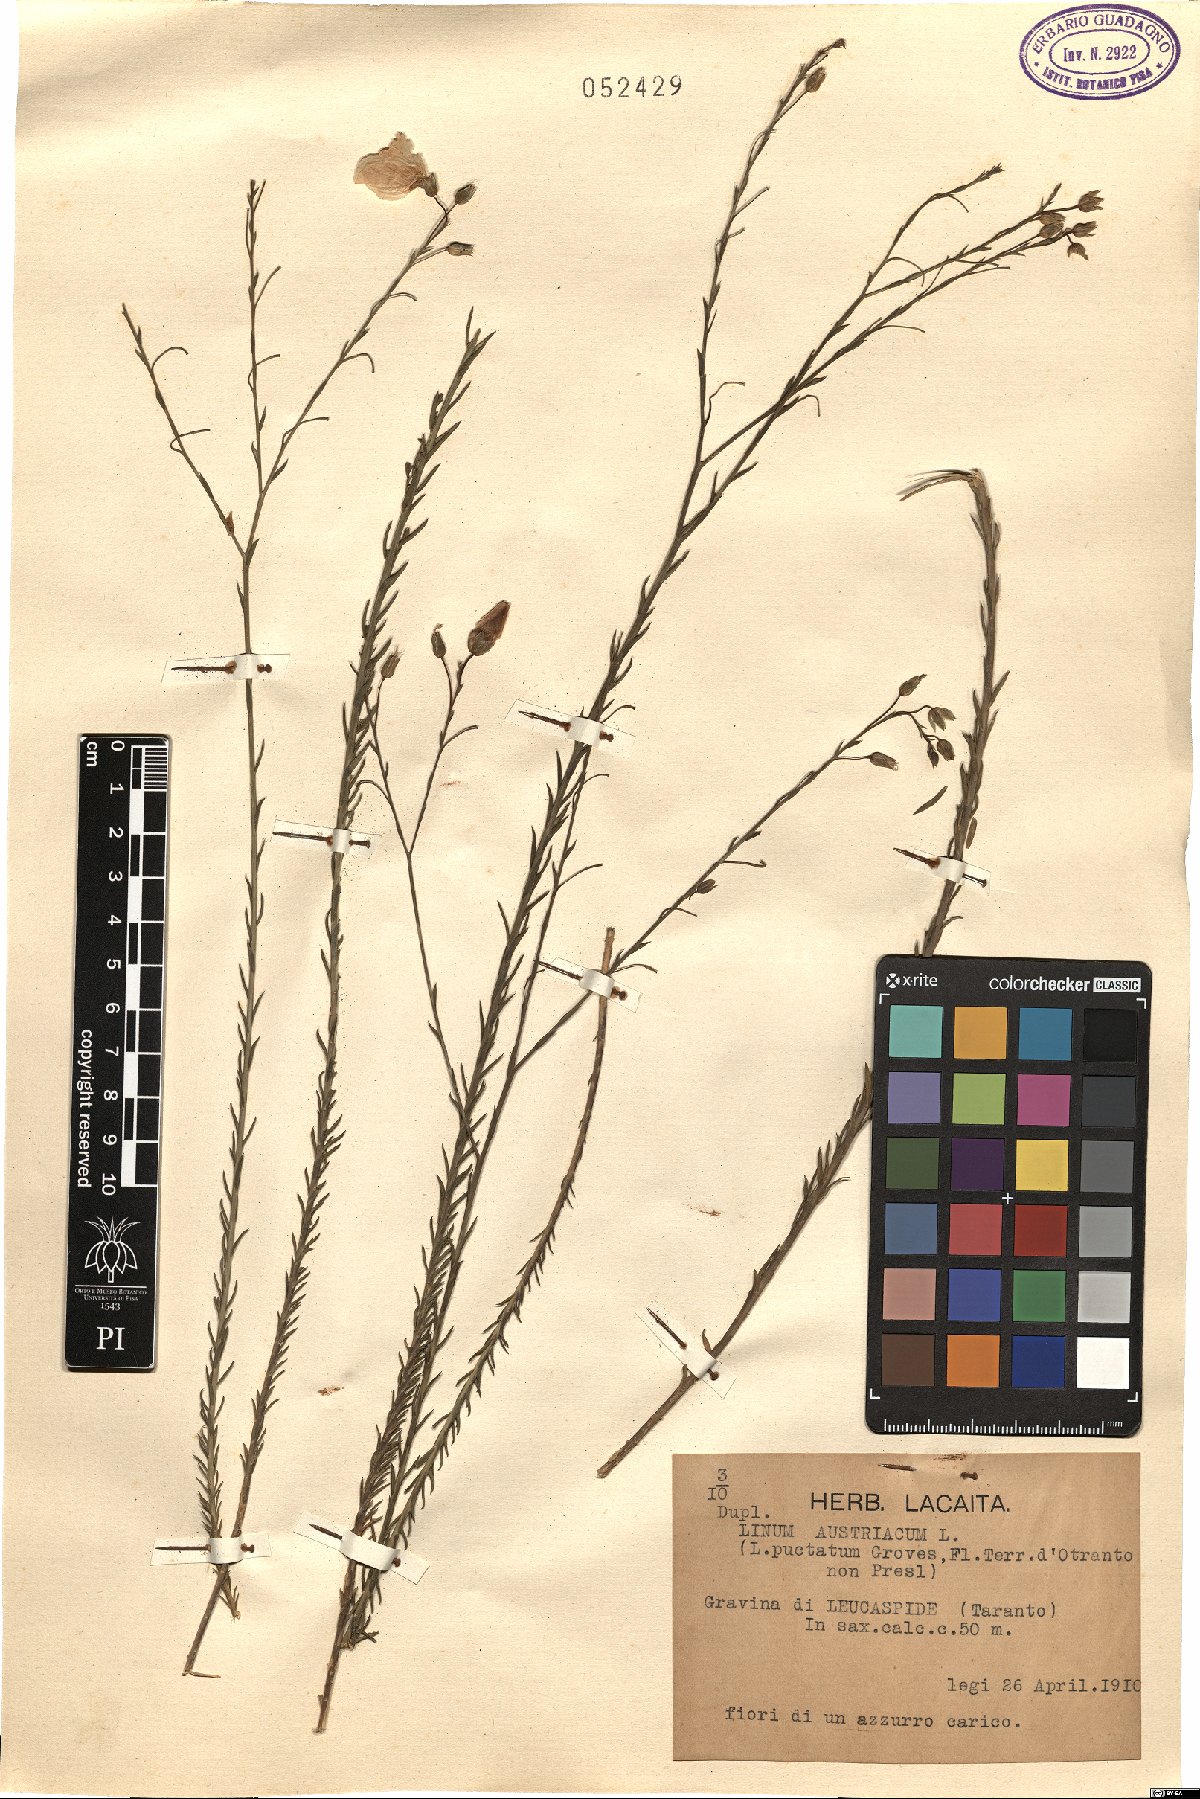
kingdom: Plantae
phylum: Tracheophyta
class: Magnoliopsida
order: Malpighiales
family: Linaceae
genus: Linum
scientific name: Linum austriacum
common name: Austrian flax
